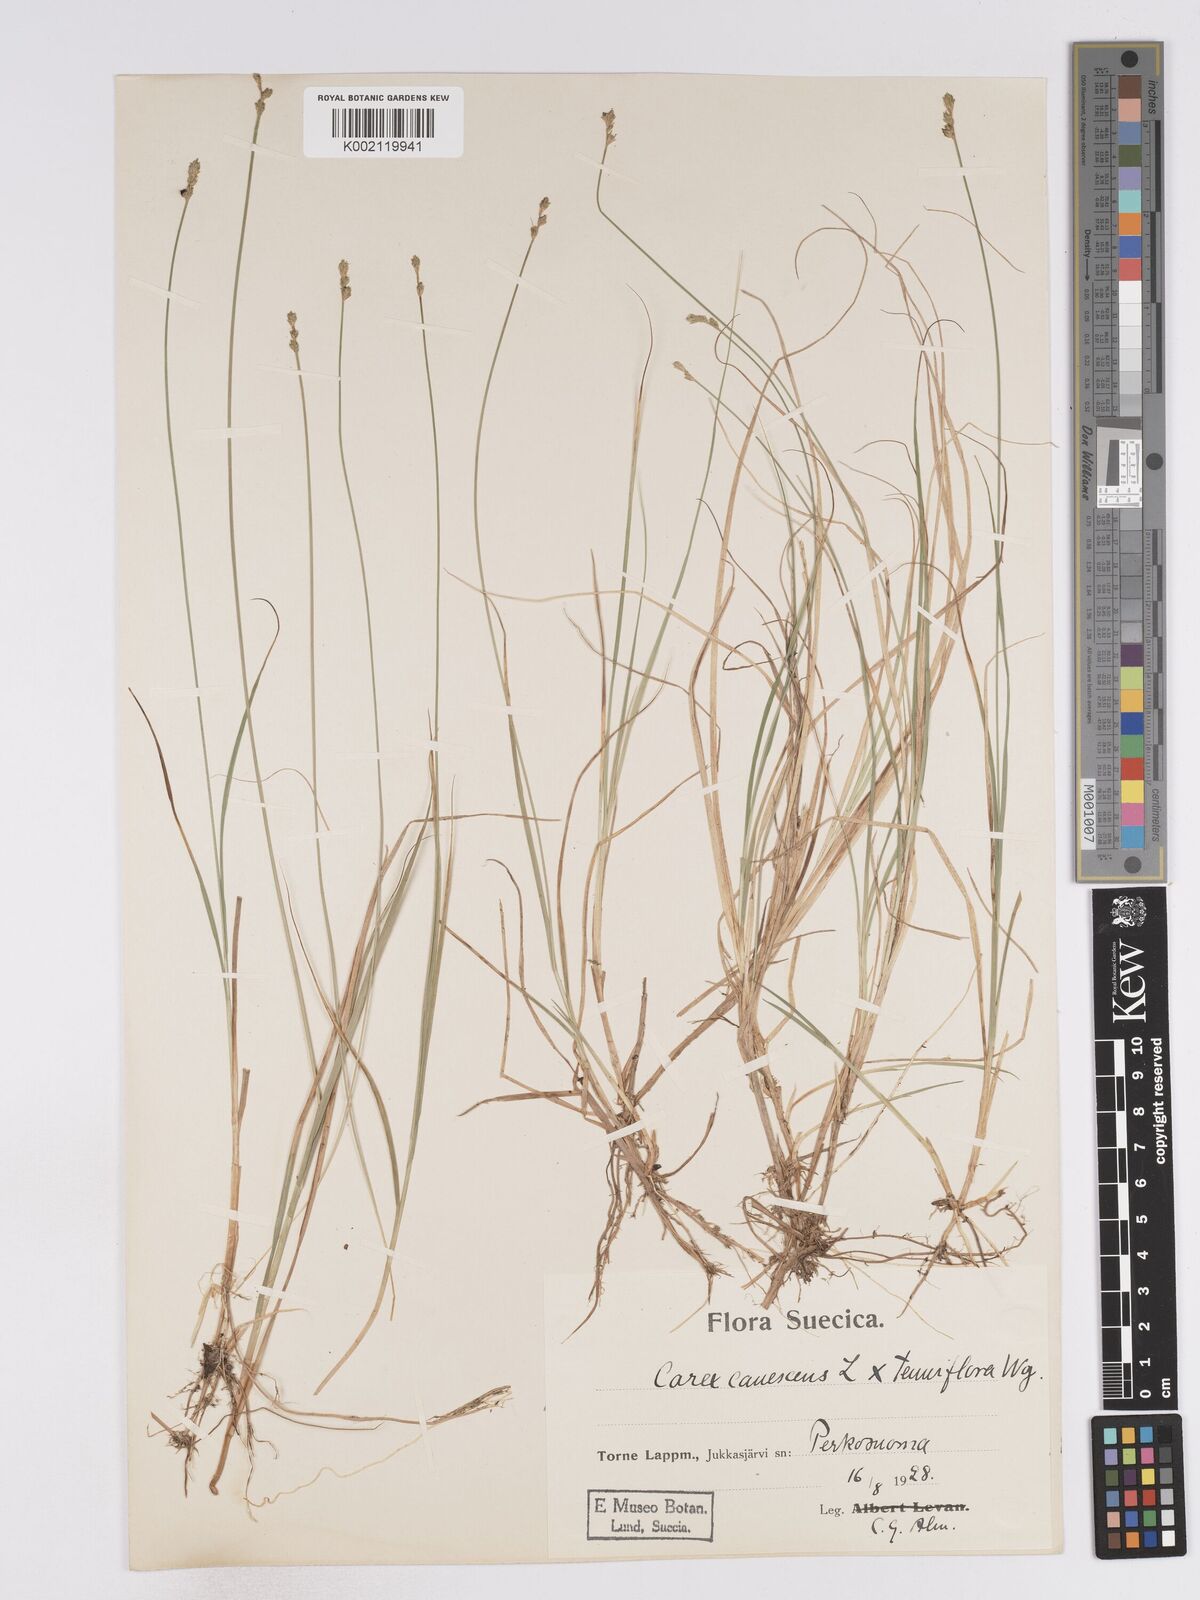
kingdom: Plantae
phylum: Tracheophyta
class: Liliopsida
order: Poales
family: Cyperaceae
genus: Carex
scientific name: Carex curta
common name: White sedge
